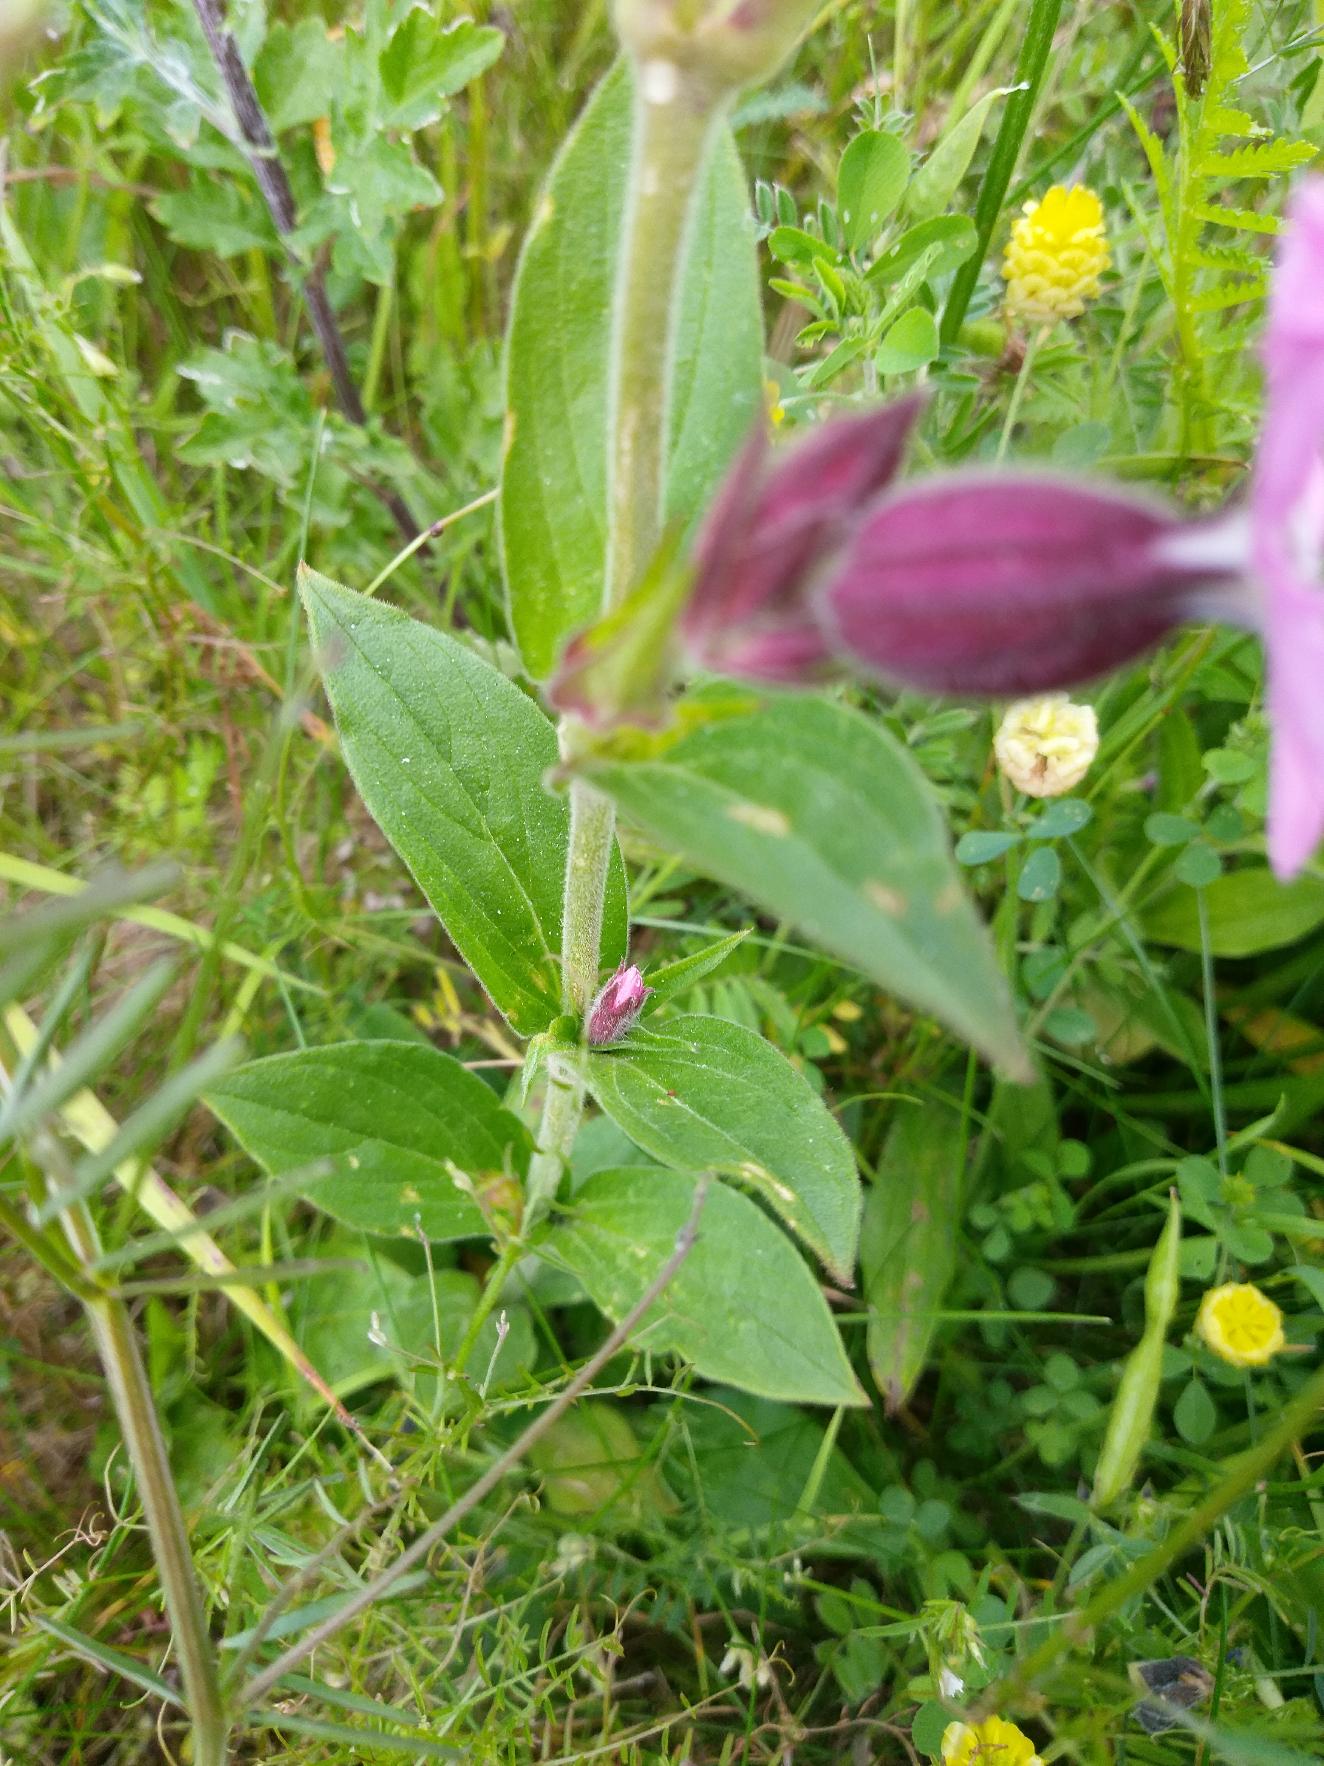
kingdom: Plantae
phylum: Tracheophyta
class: Magnoliopsida
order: Caryophyllales
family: Caryophyllaceae
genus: Silene
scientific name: Silene dioica
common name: Dagpragtstjerne
